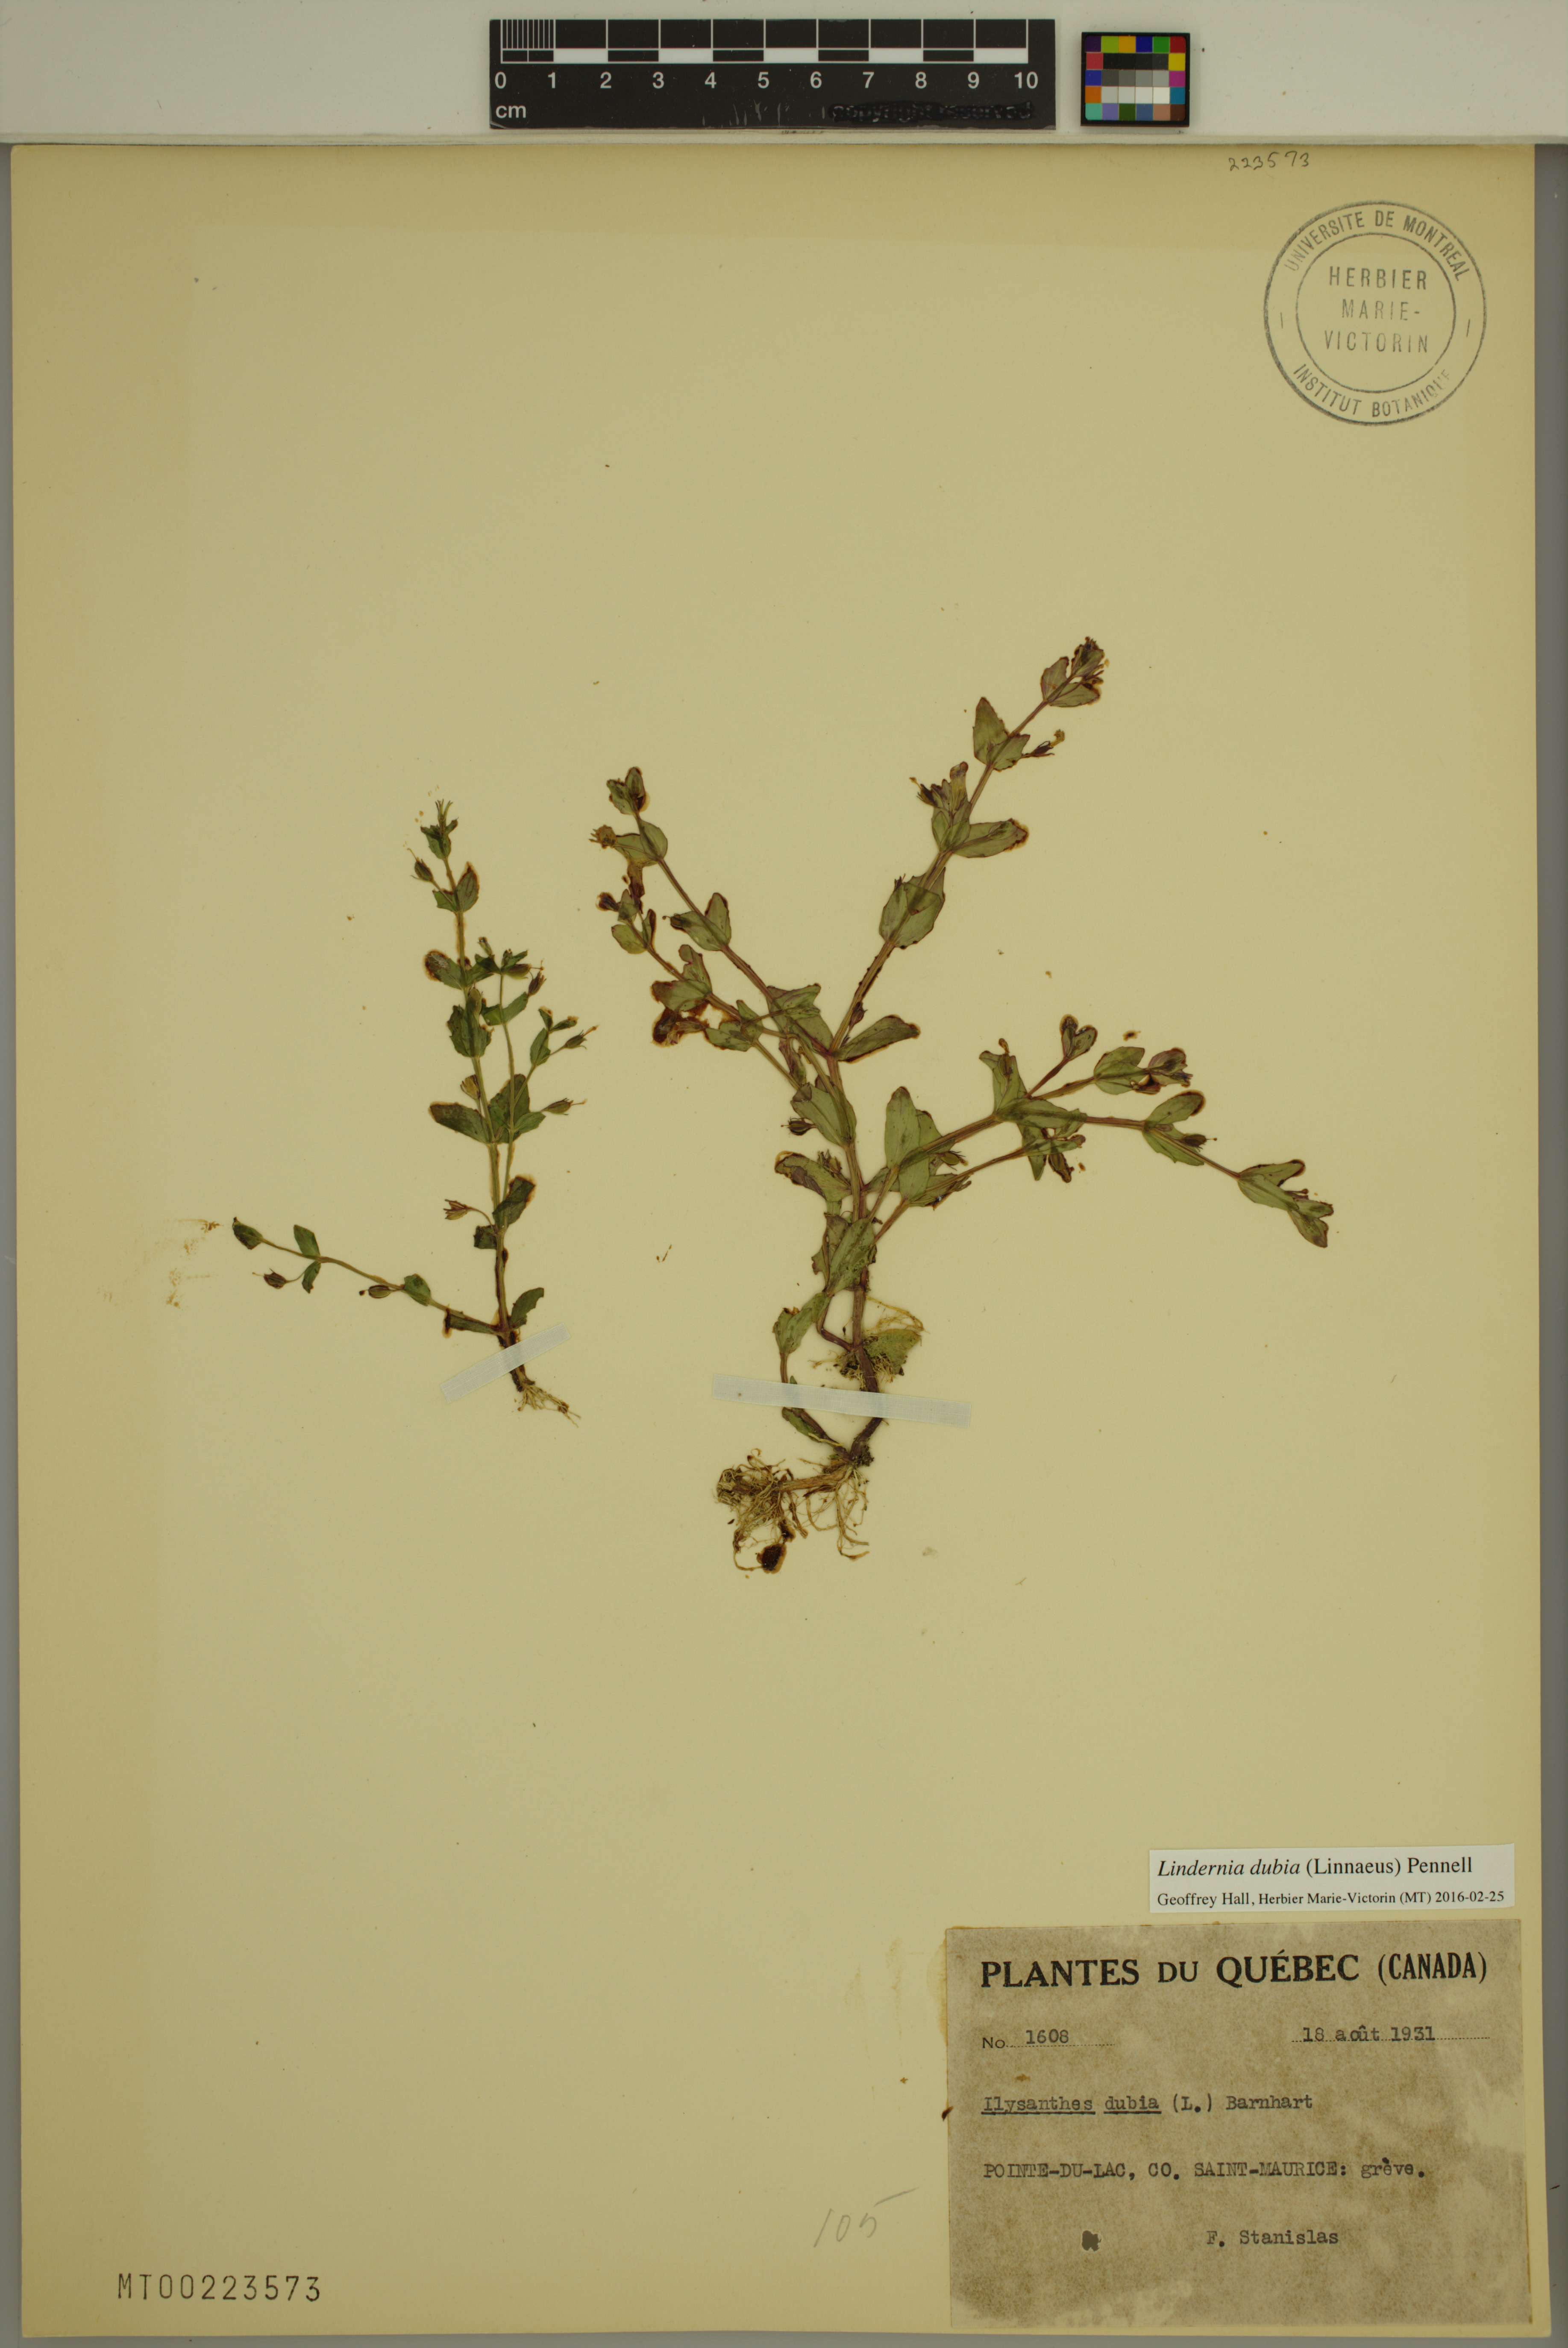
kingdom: Plantae
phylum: Tracheophyta
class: Magnoliopsida
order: Lamiales
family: Linderniaceae
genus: Lindernia
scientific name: Lindernia dubia
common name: Annual false pimpernel
